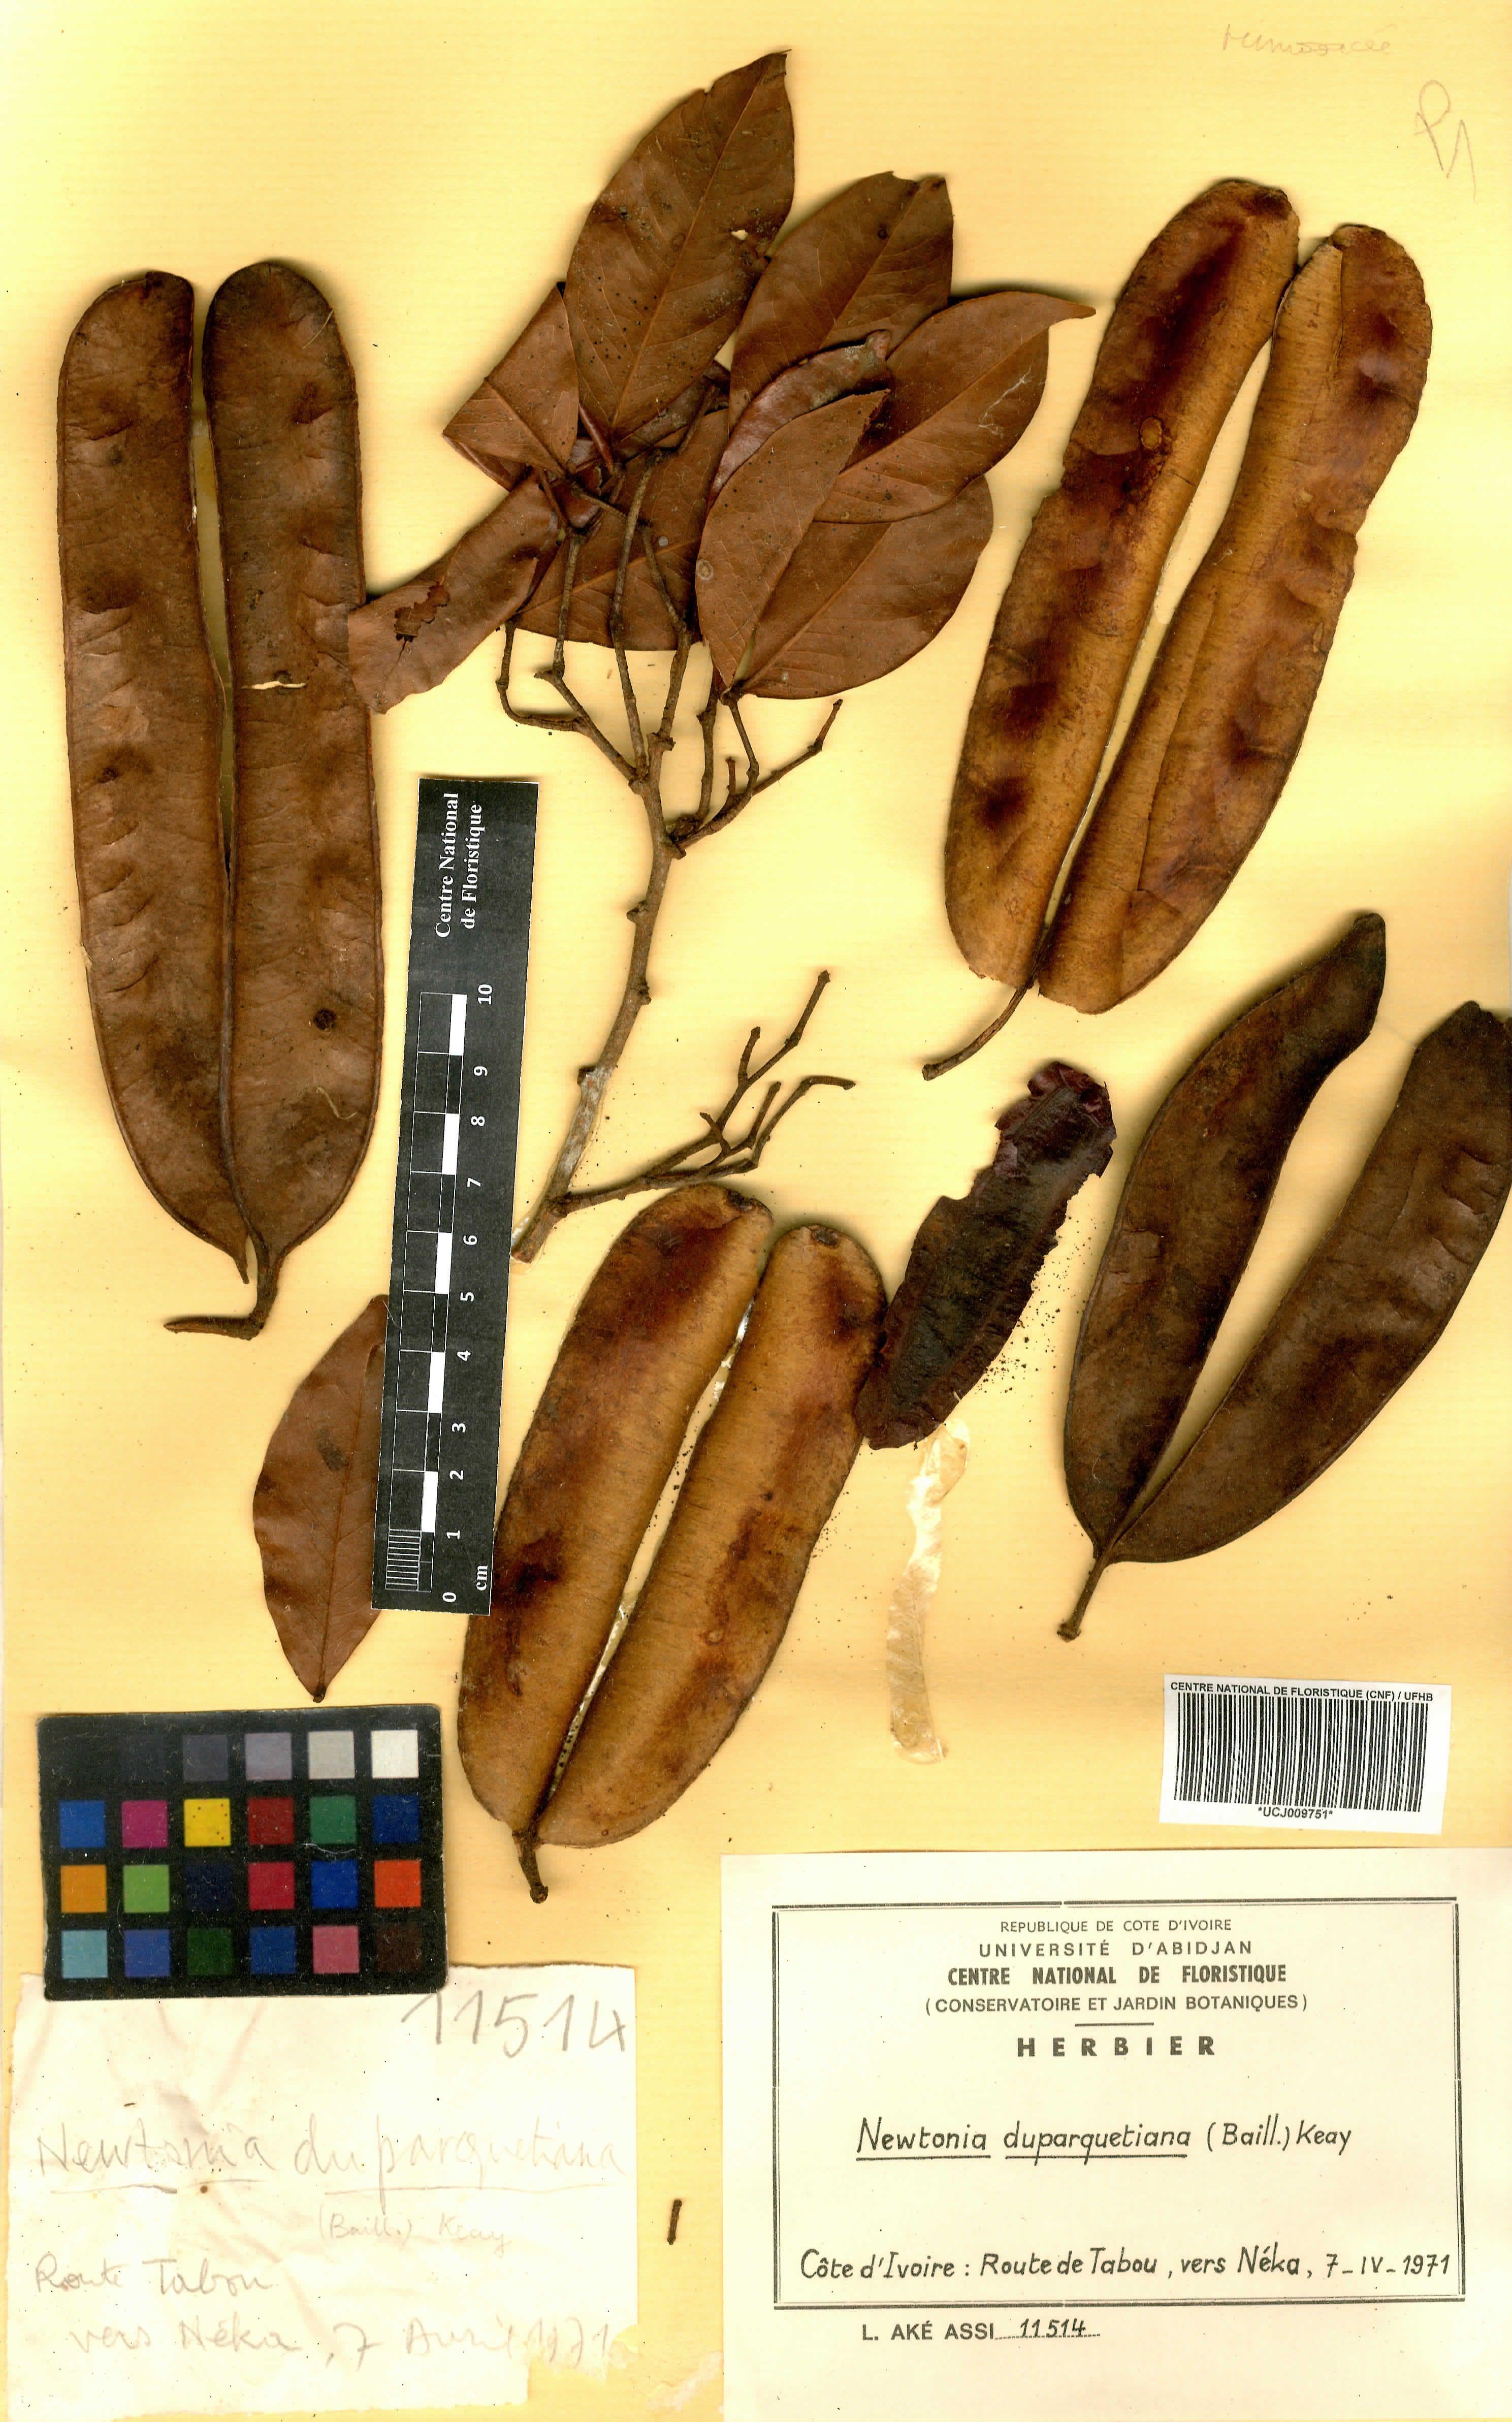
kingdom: Plantae
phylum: Tracheophyta
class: Magnoliopsida
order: Fabales
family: Fabaceae
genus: Newtonia
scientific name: Newtonia duparquetiana
